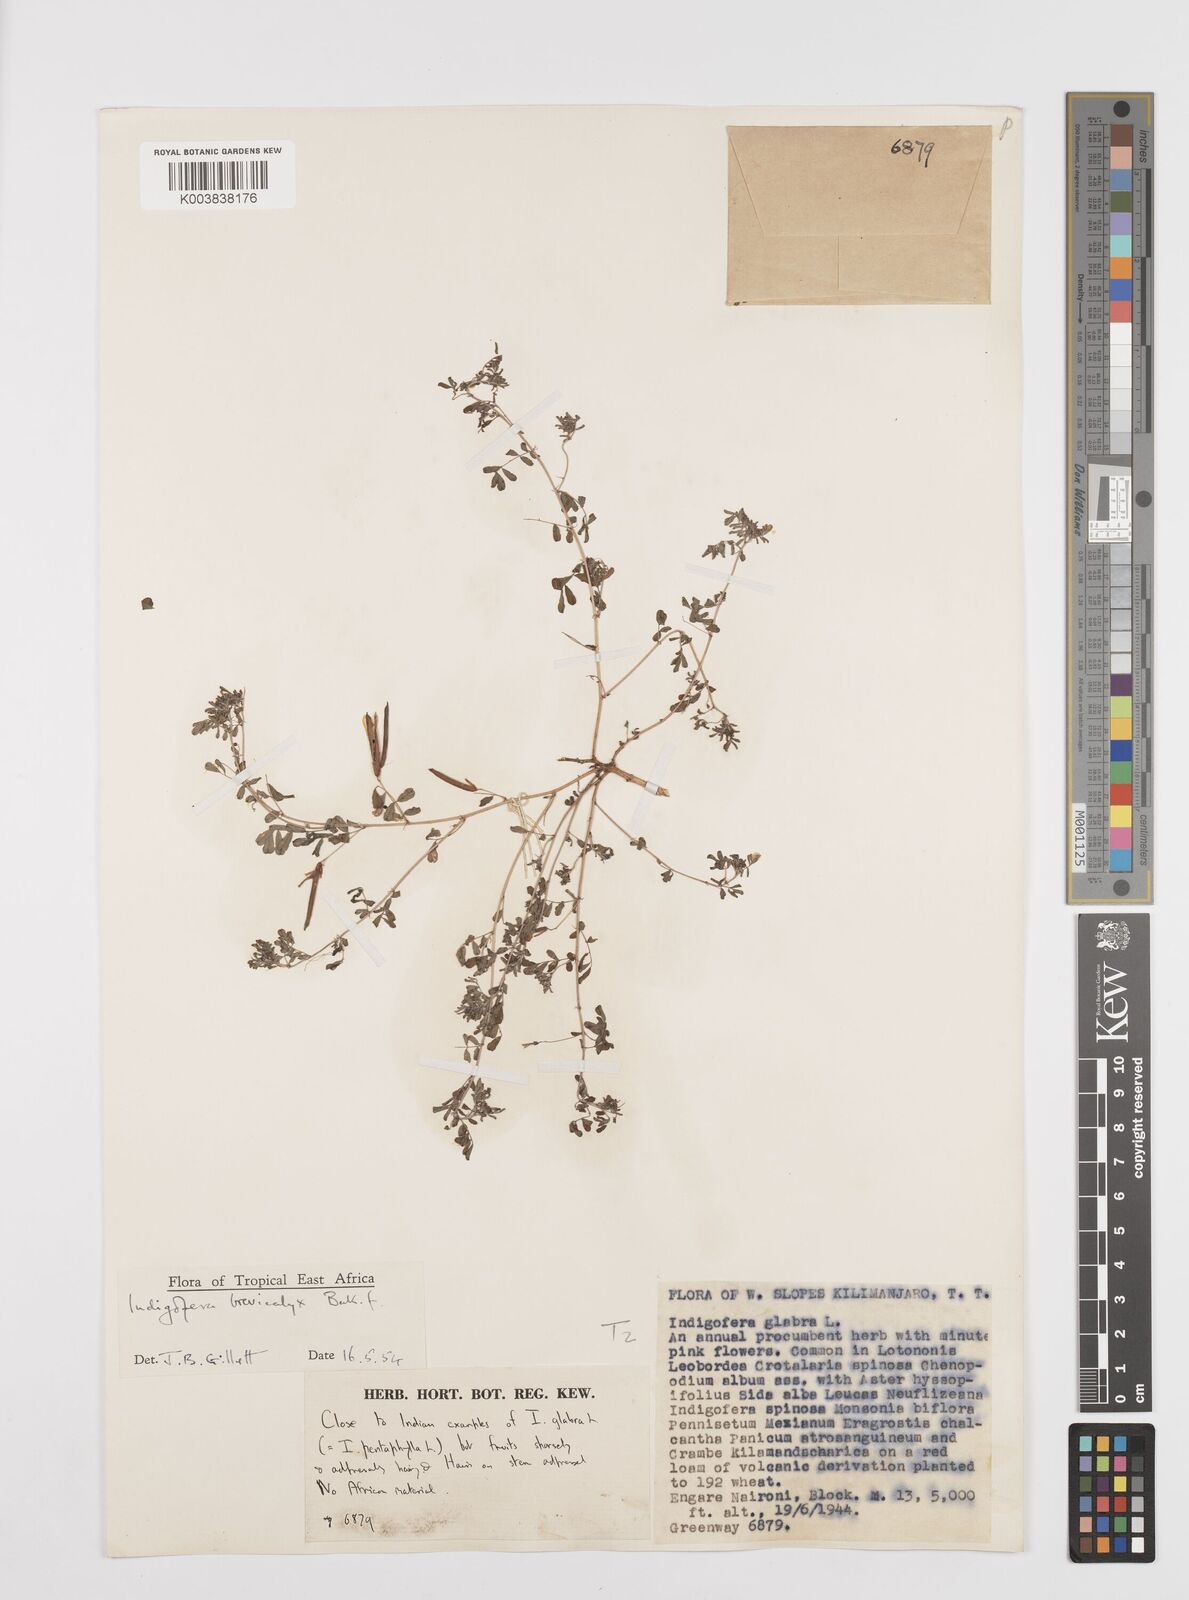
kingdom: Plantae
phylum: Tracheophyta
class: Magnoliopsida
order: Fabales
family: Fabaceae
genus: Indigofera
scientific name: Indigofera brevicalyx
